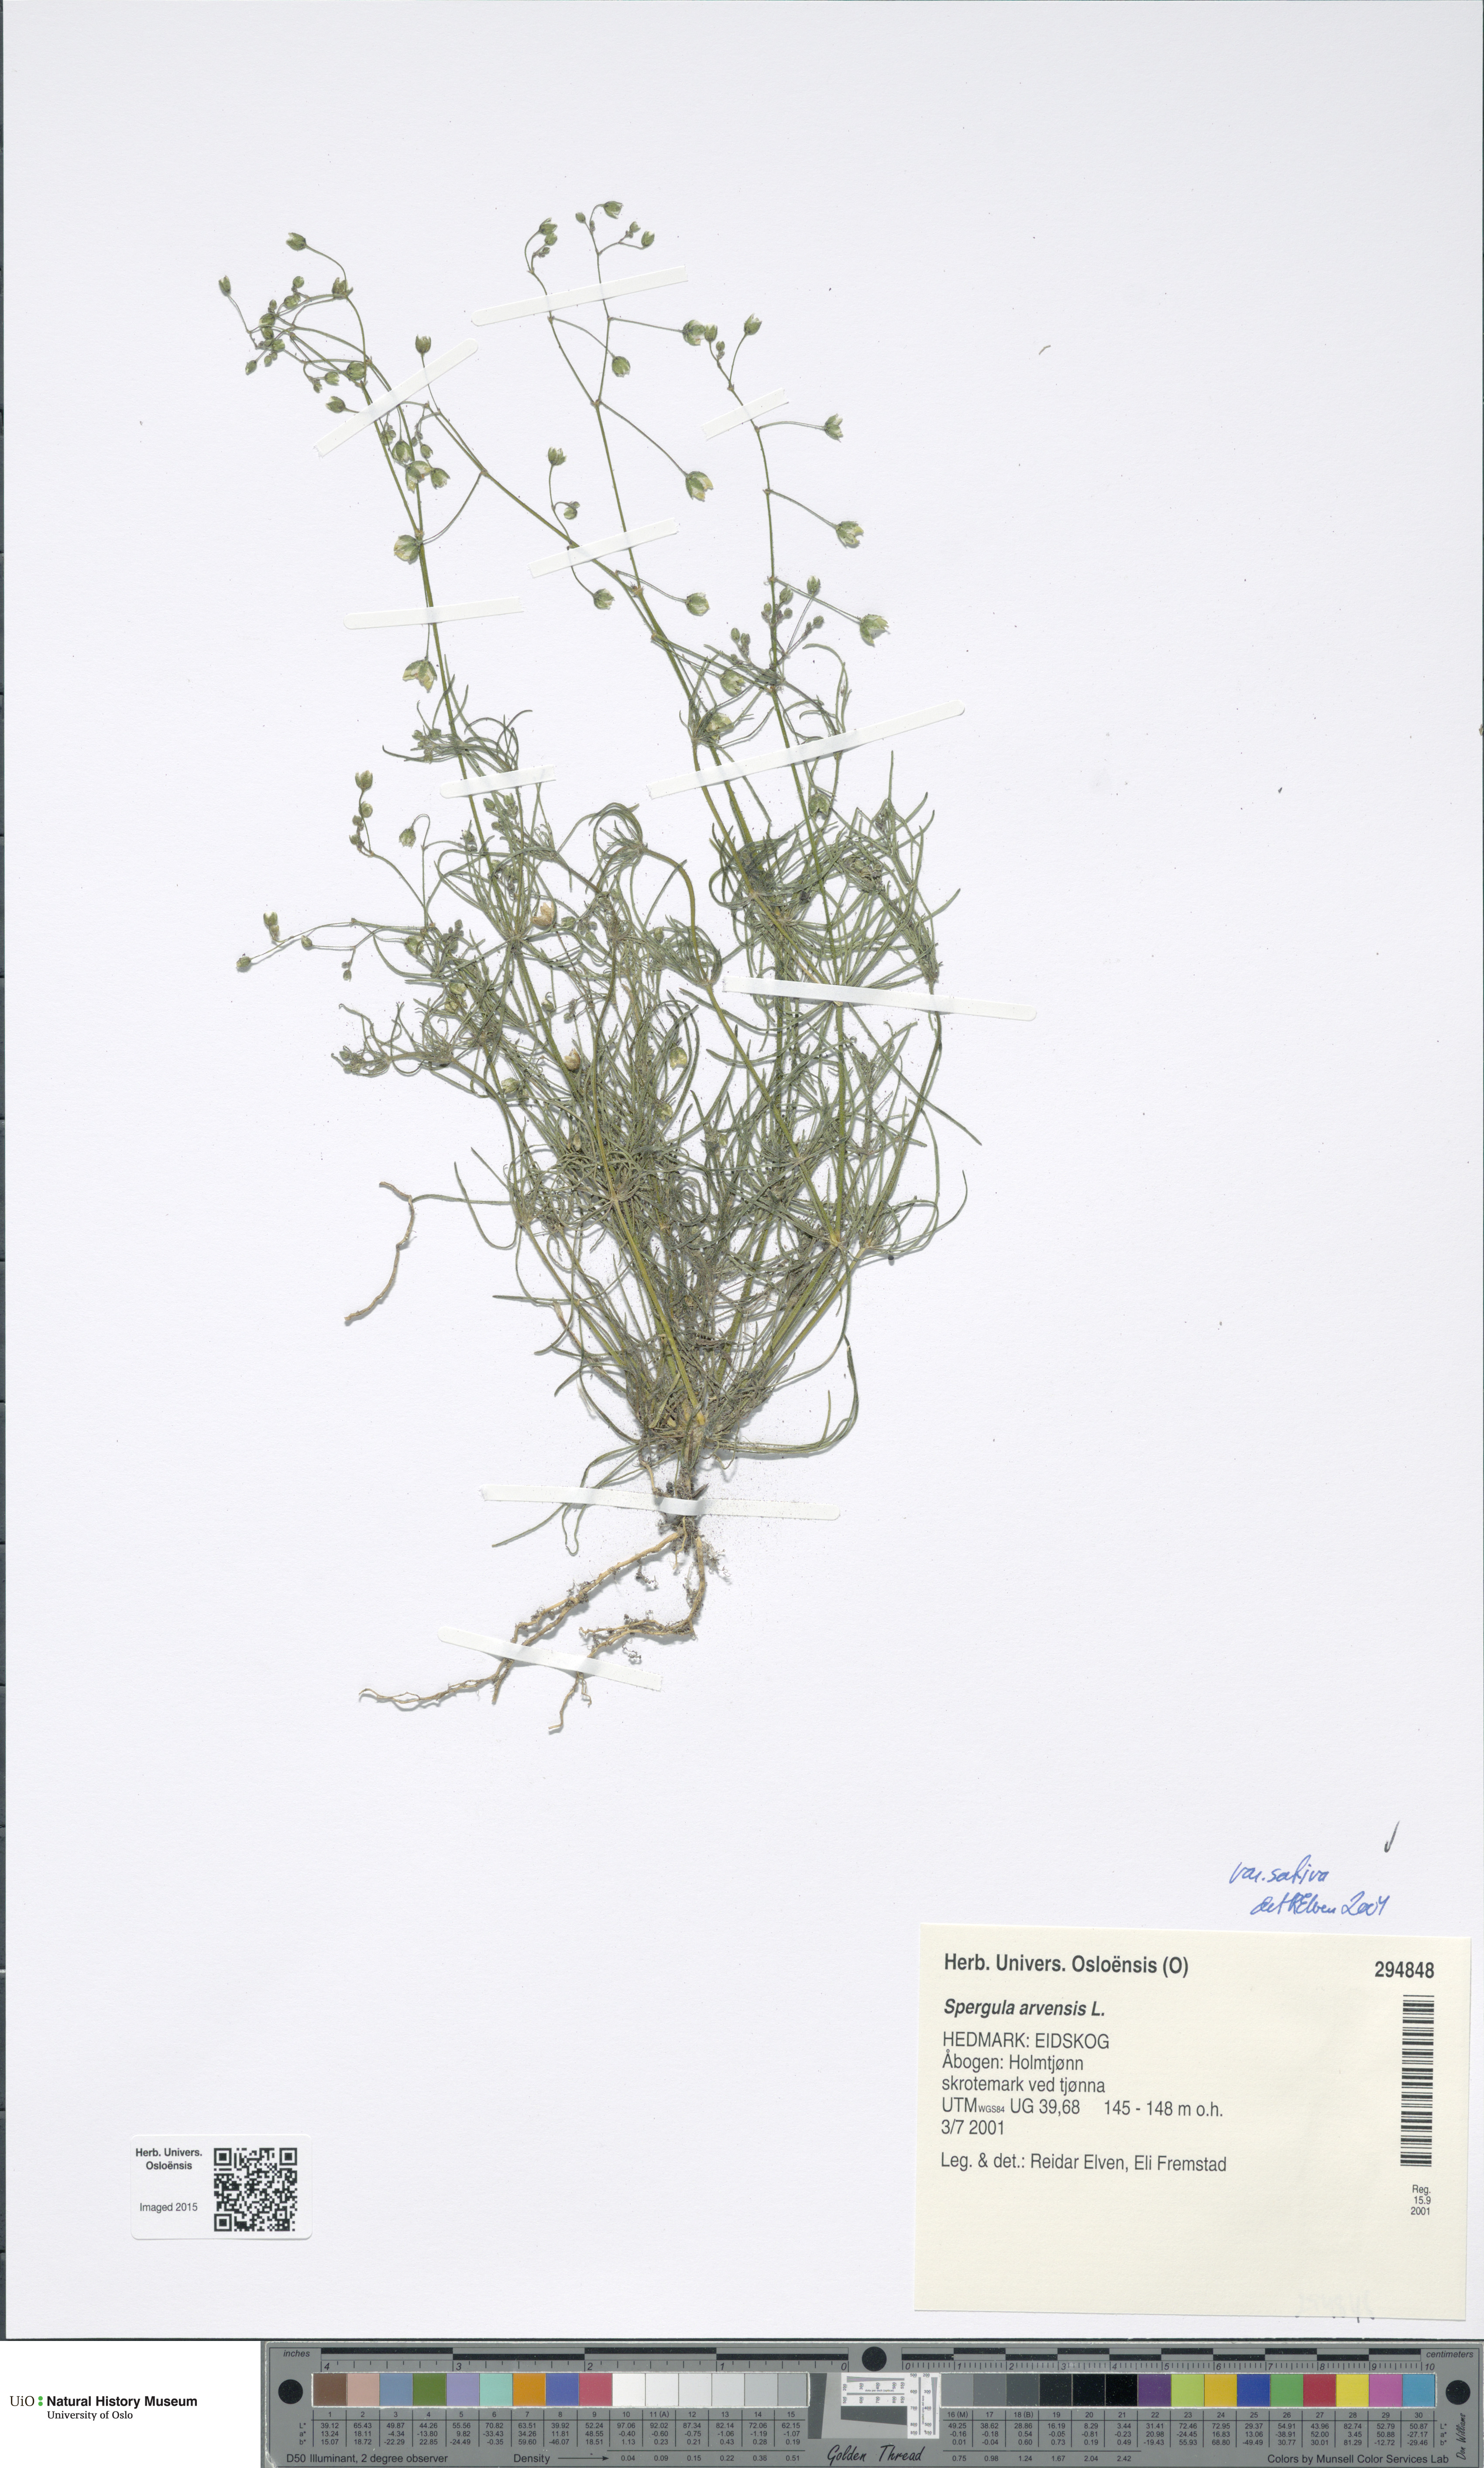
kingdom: Plantae
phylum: Tracheophyta
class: Magnoliopsida
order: Caryophyllales
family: Caryophyllaceae
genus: Spergula
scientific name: Spergula arvensis
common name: Corn spurrey
